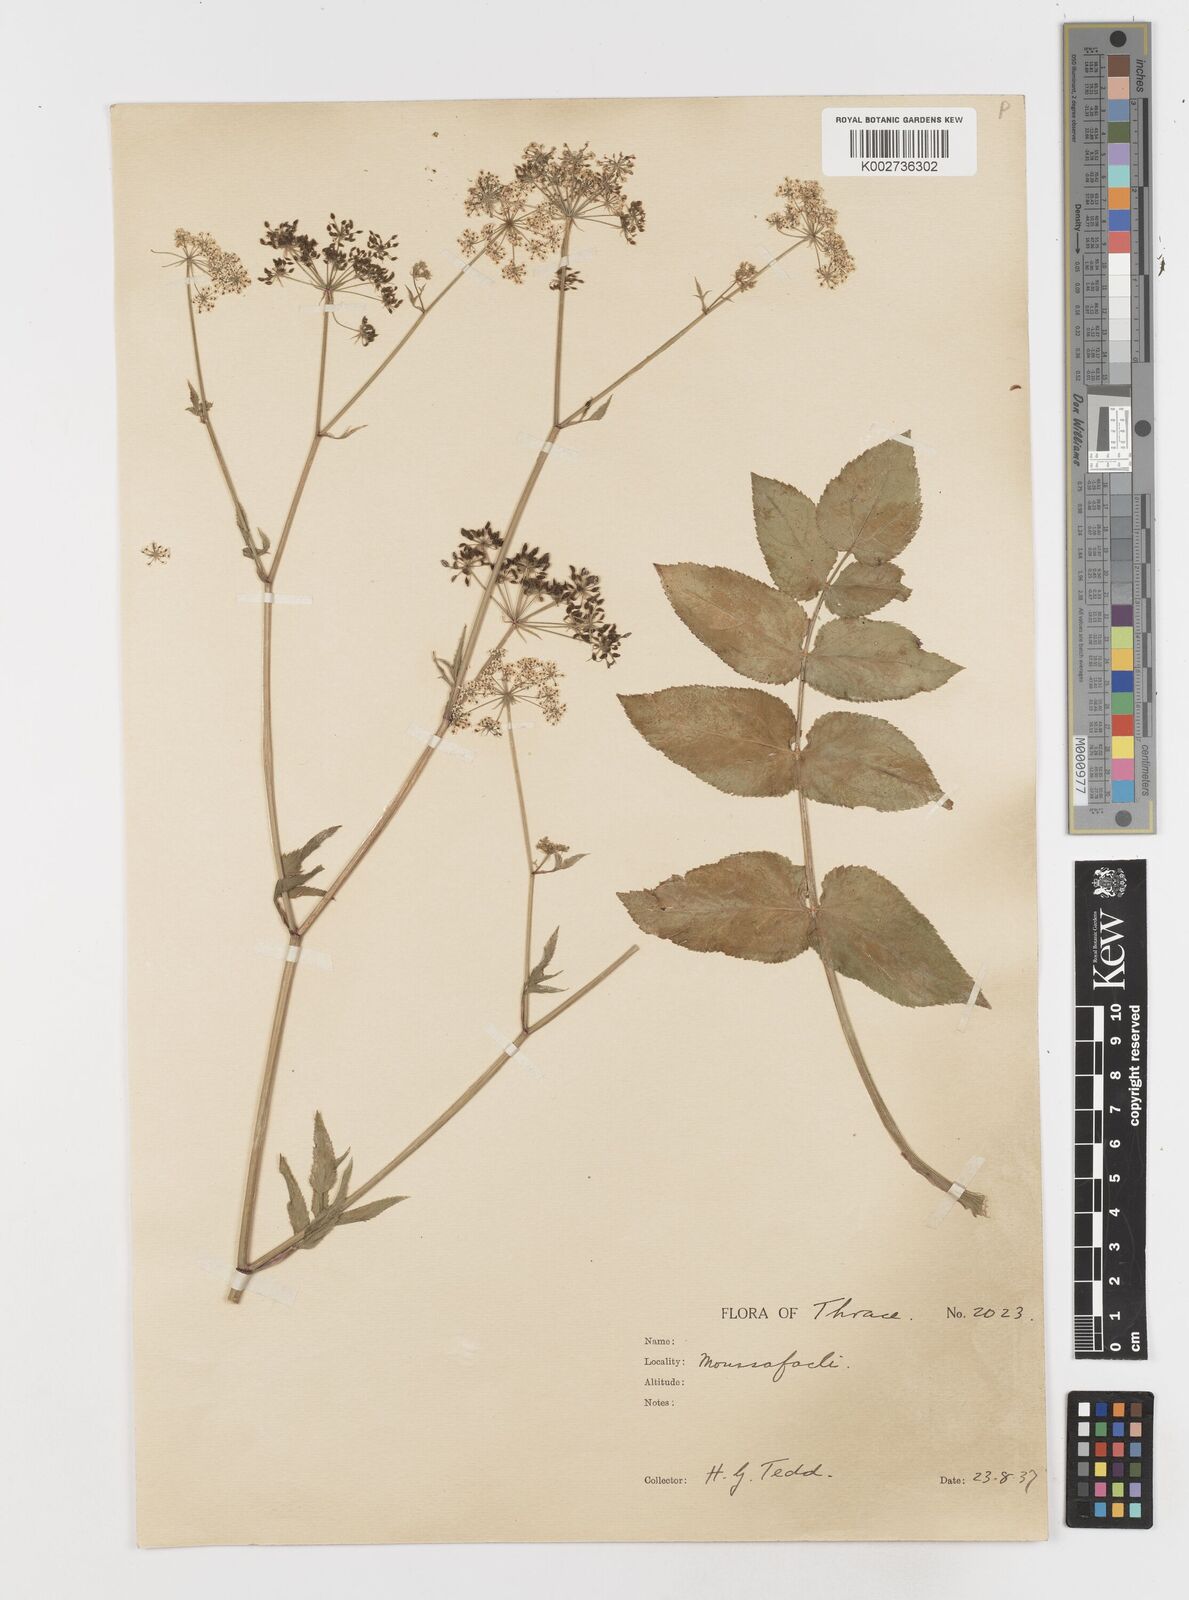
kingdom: Plantae
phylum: Tracheophyta
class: Magnoliopsida
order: Apiales
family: Apiaceae
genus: Sium
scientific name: Sium sisarum
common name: Skirret
